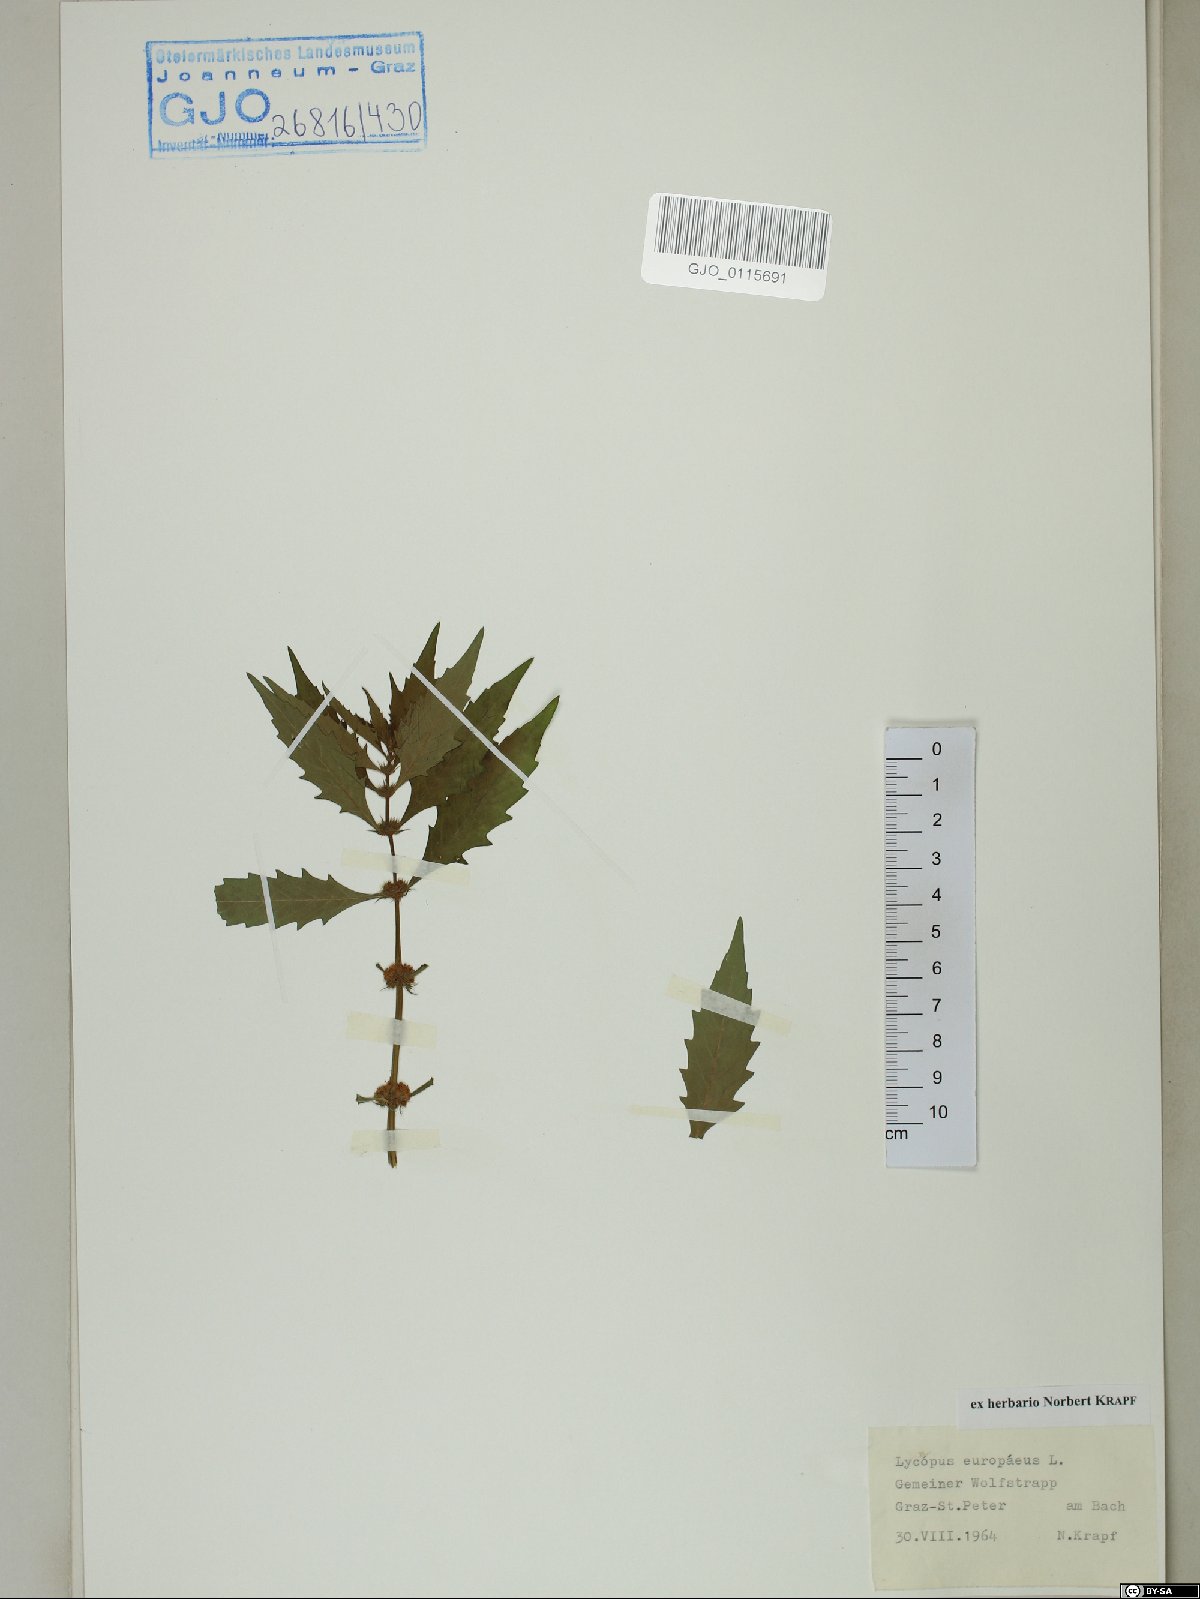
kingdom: Plantae
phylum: Tracheophyta
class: Magnoliopsida
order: Lamiales
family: Lamiaceae
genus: Lycopus
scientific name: Lycopus europaeus
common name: European bugleweed
